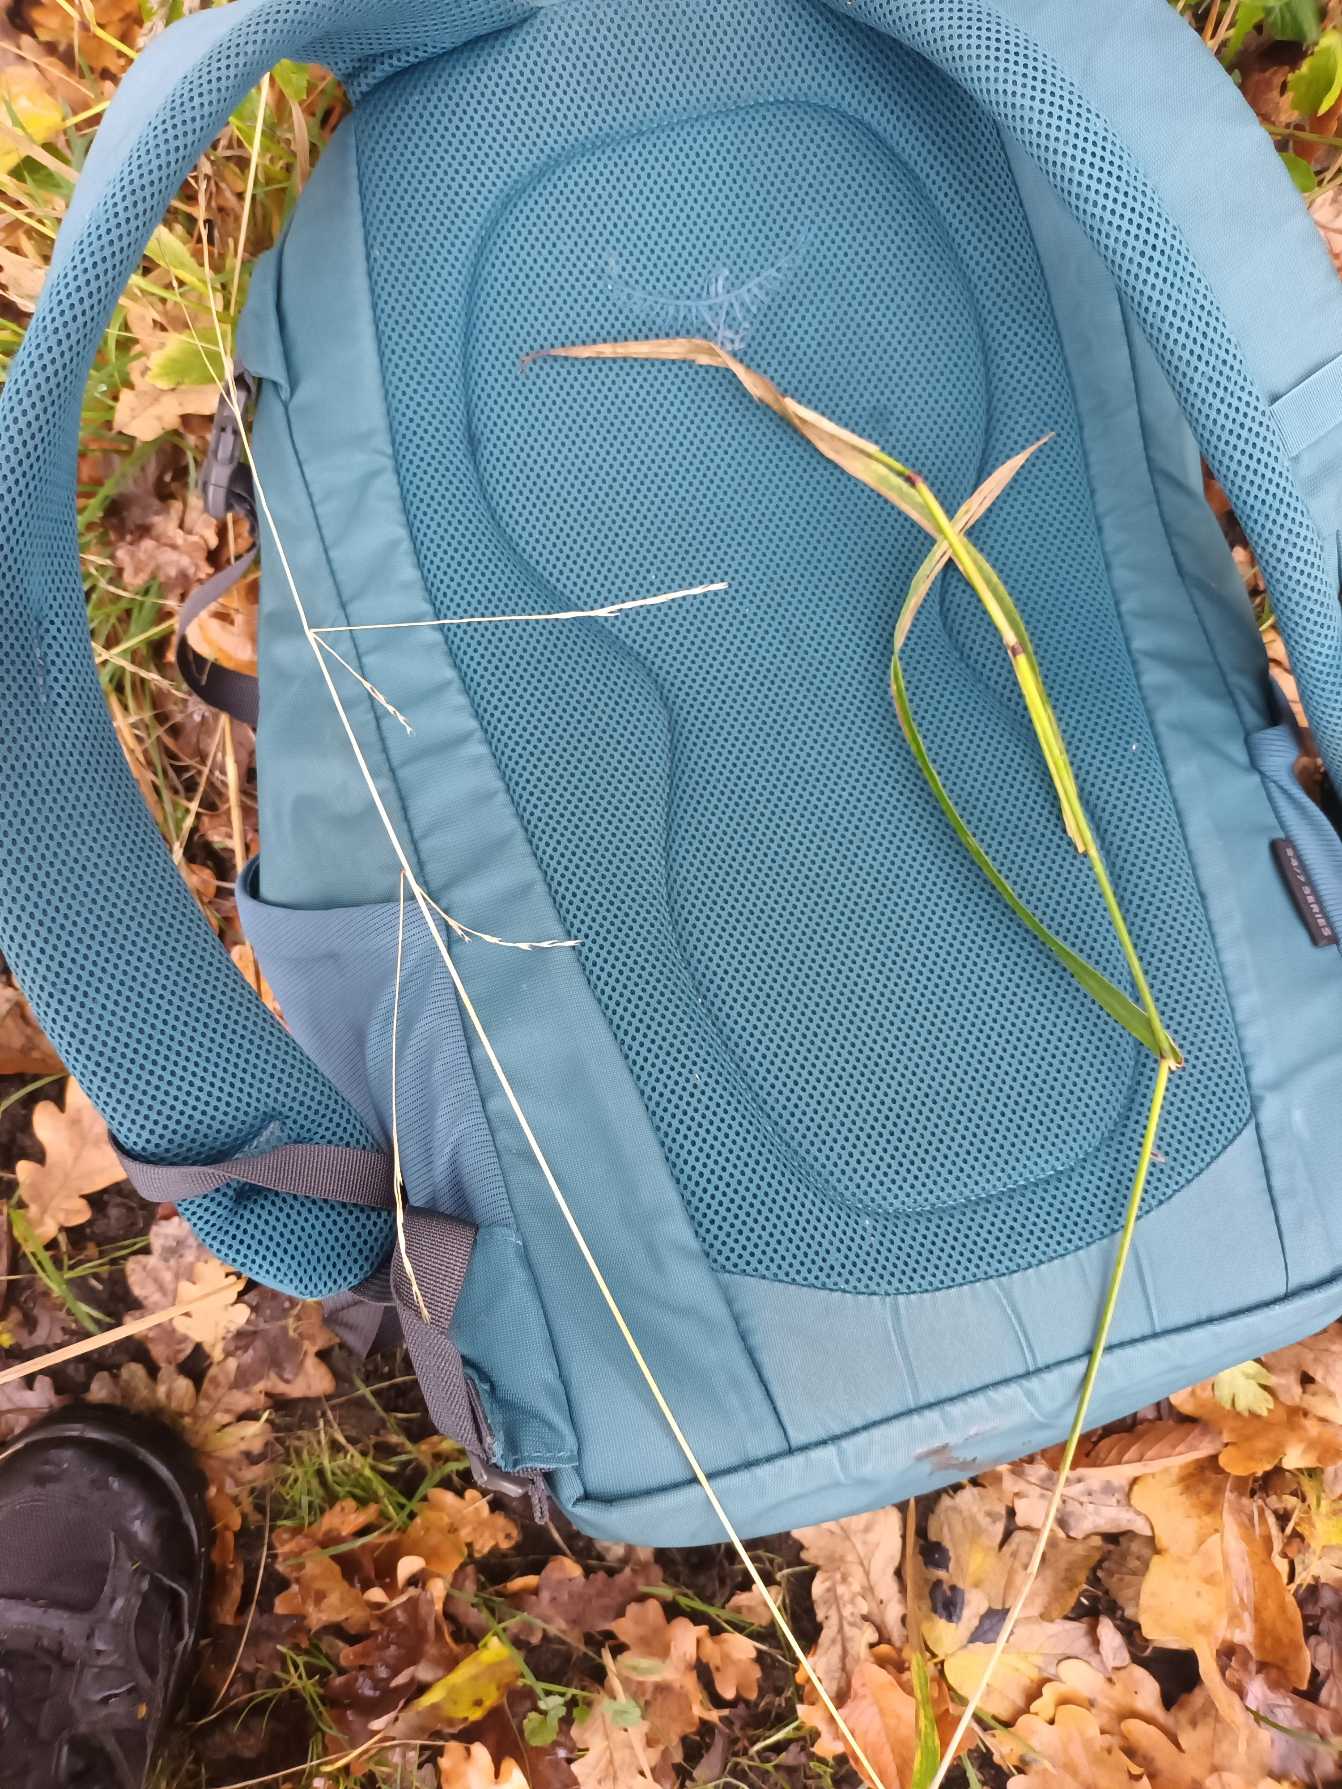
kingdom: Plantae
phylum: Tracheophyta
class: Liliopsida
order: Poales
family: Poaceae
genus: Lolium
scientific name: Lolium giganteum
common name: Kæmpe-svingel
